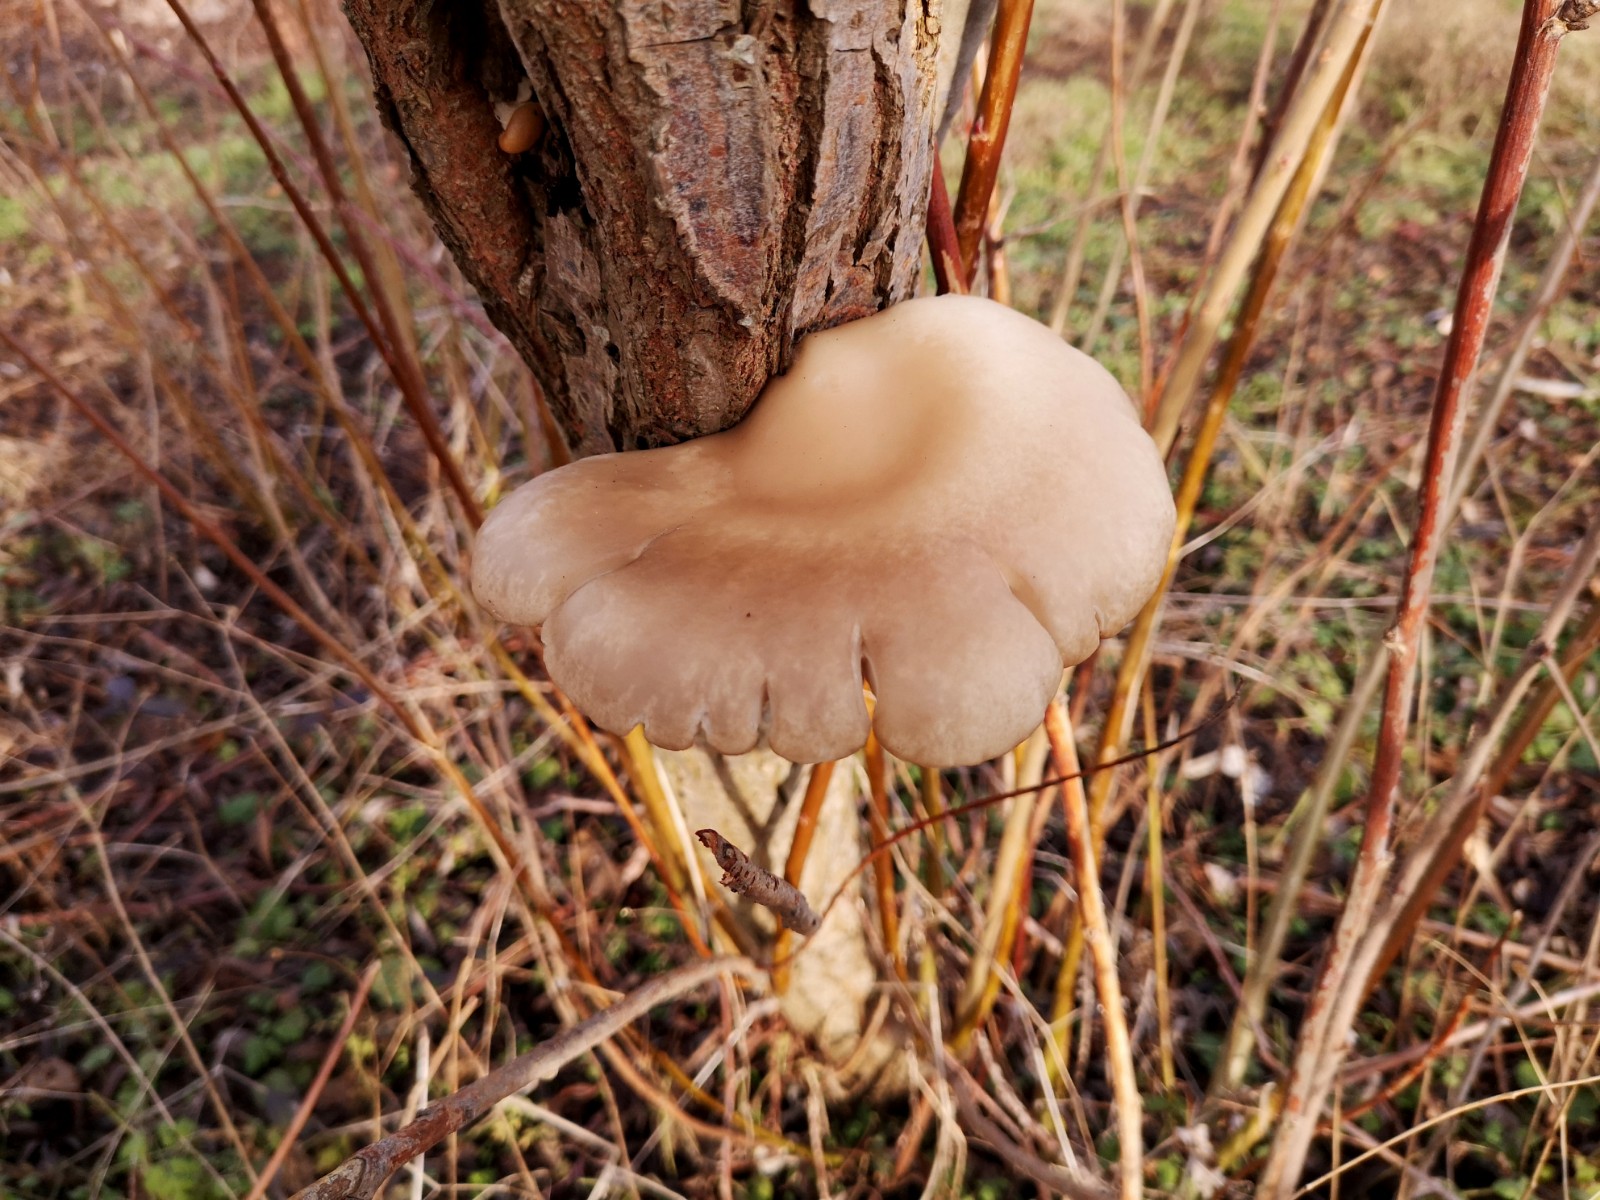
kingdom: Fungi
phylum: Basidiomycota
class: Agaricomycetes
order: Agaricales
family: Pleurotaceae
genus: Pleurotus
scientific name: Pleurotus ostreatus
